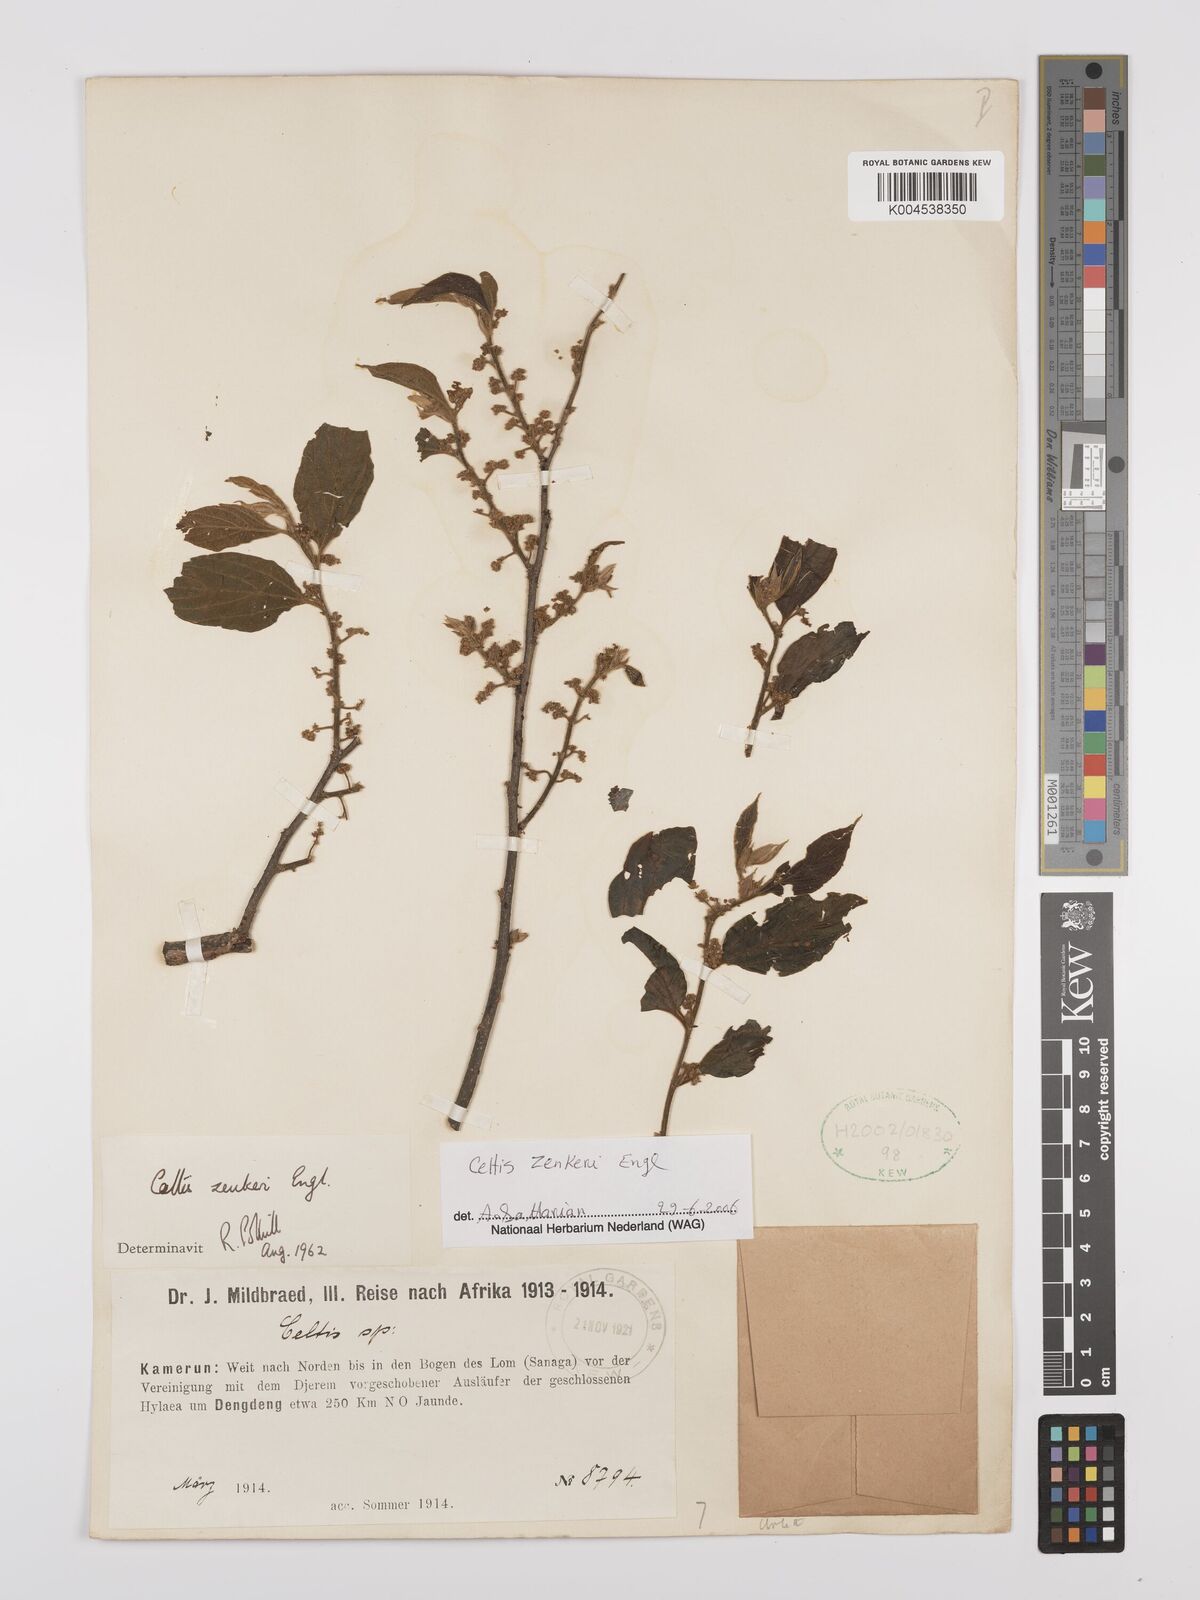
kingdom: Plantae
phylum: Tracheophyta
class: Magnoliopsida
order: Rosales
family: Cannabaceae
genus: Celtis
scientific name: Celtis zenkeri
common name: African celtis
